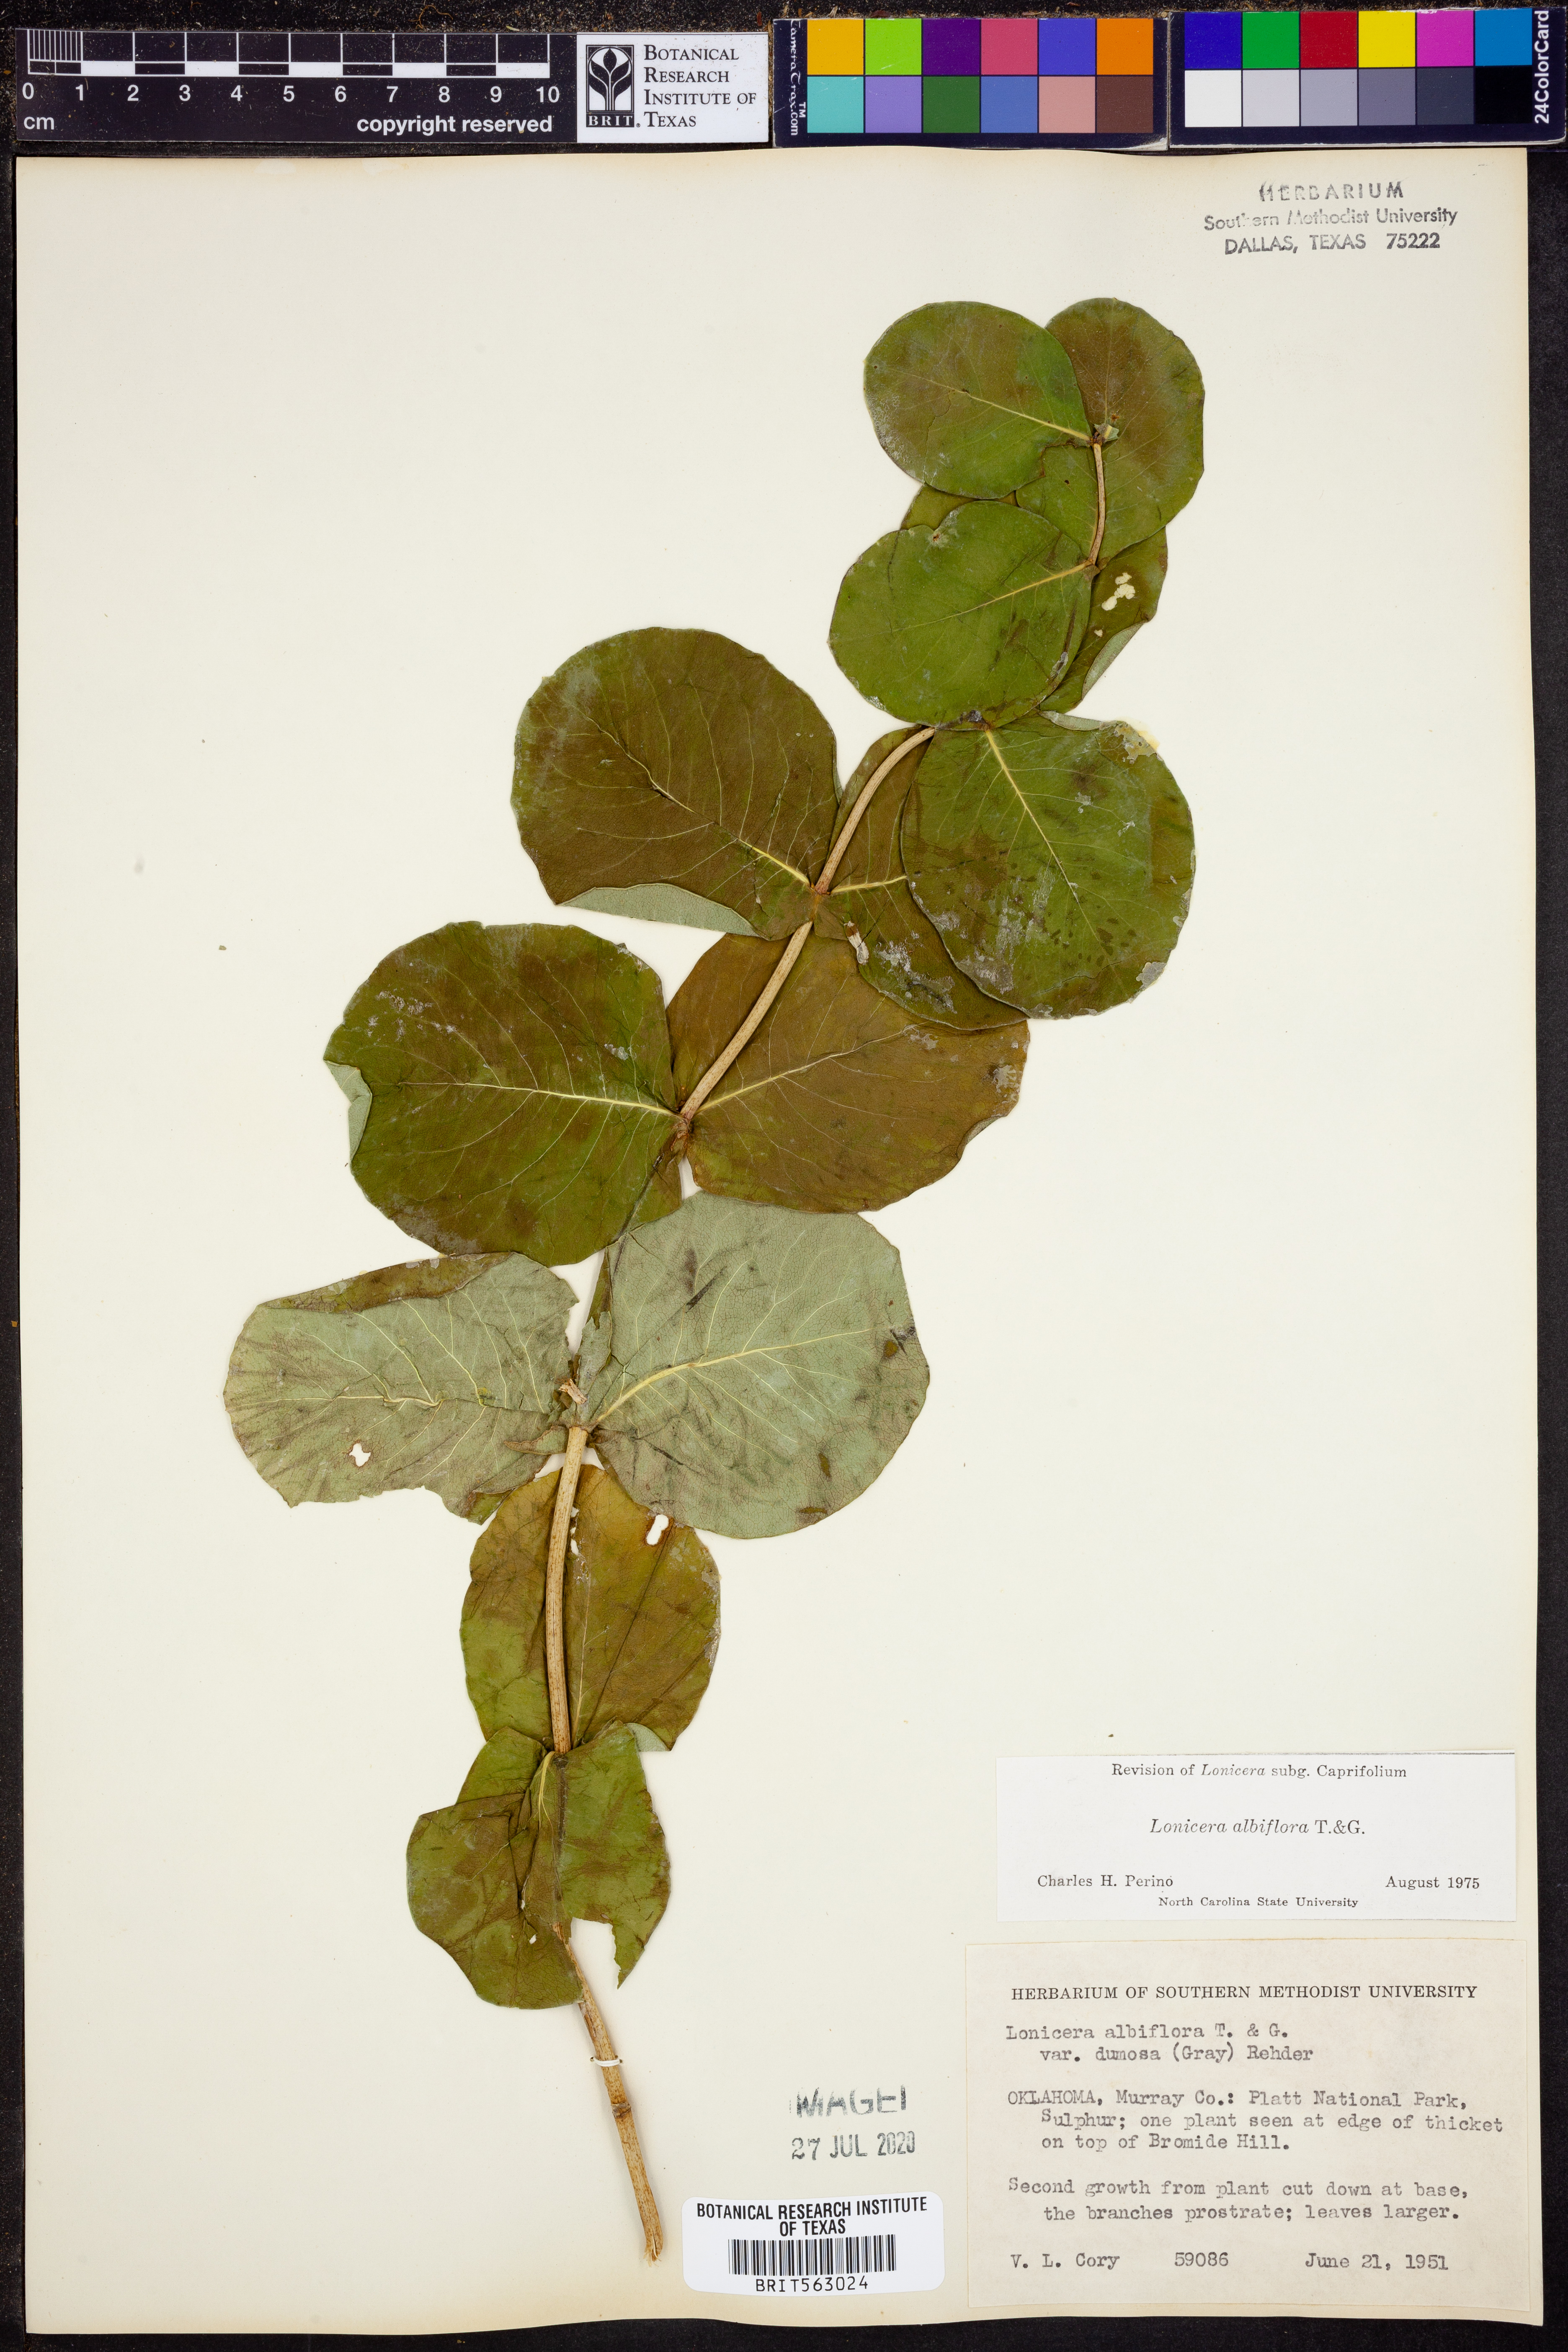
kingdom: Plantae
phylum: Tracheophyta
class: Magnoliopsida
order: Dipsacales
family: Caprifoliaceae
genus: Lonicera
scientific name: Lonicera albiflora
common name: White honeysuckle
